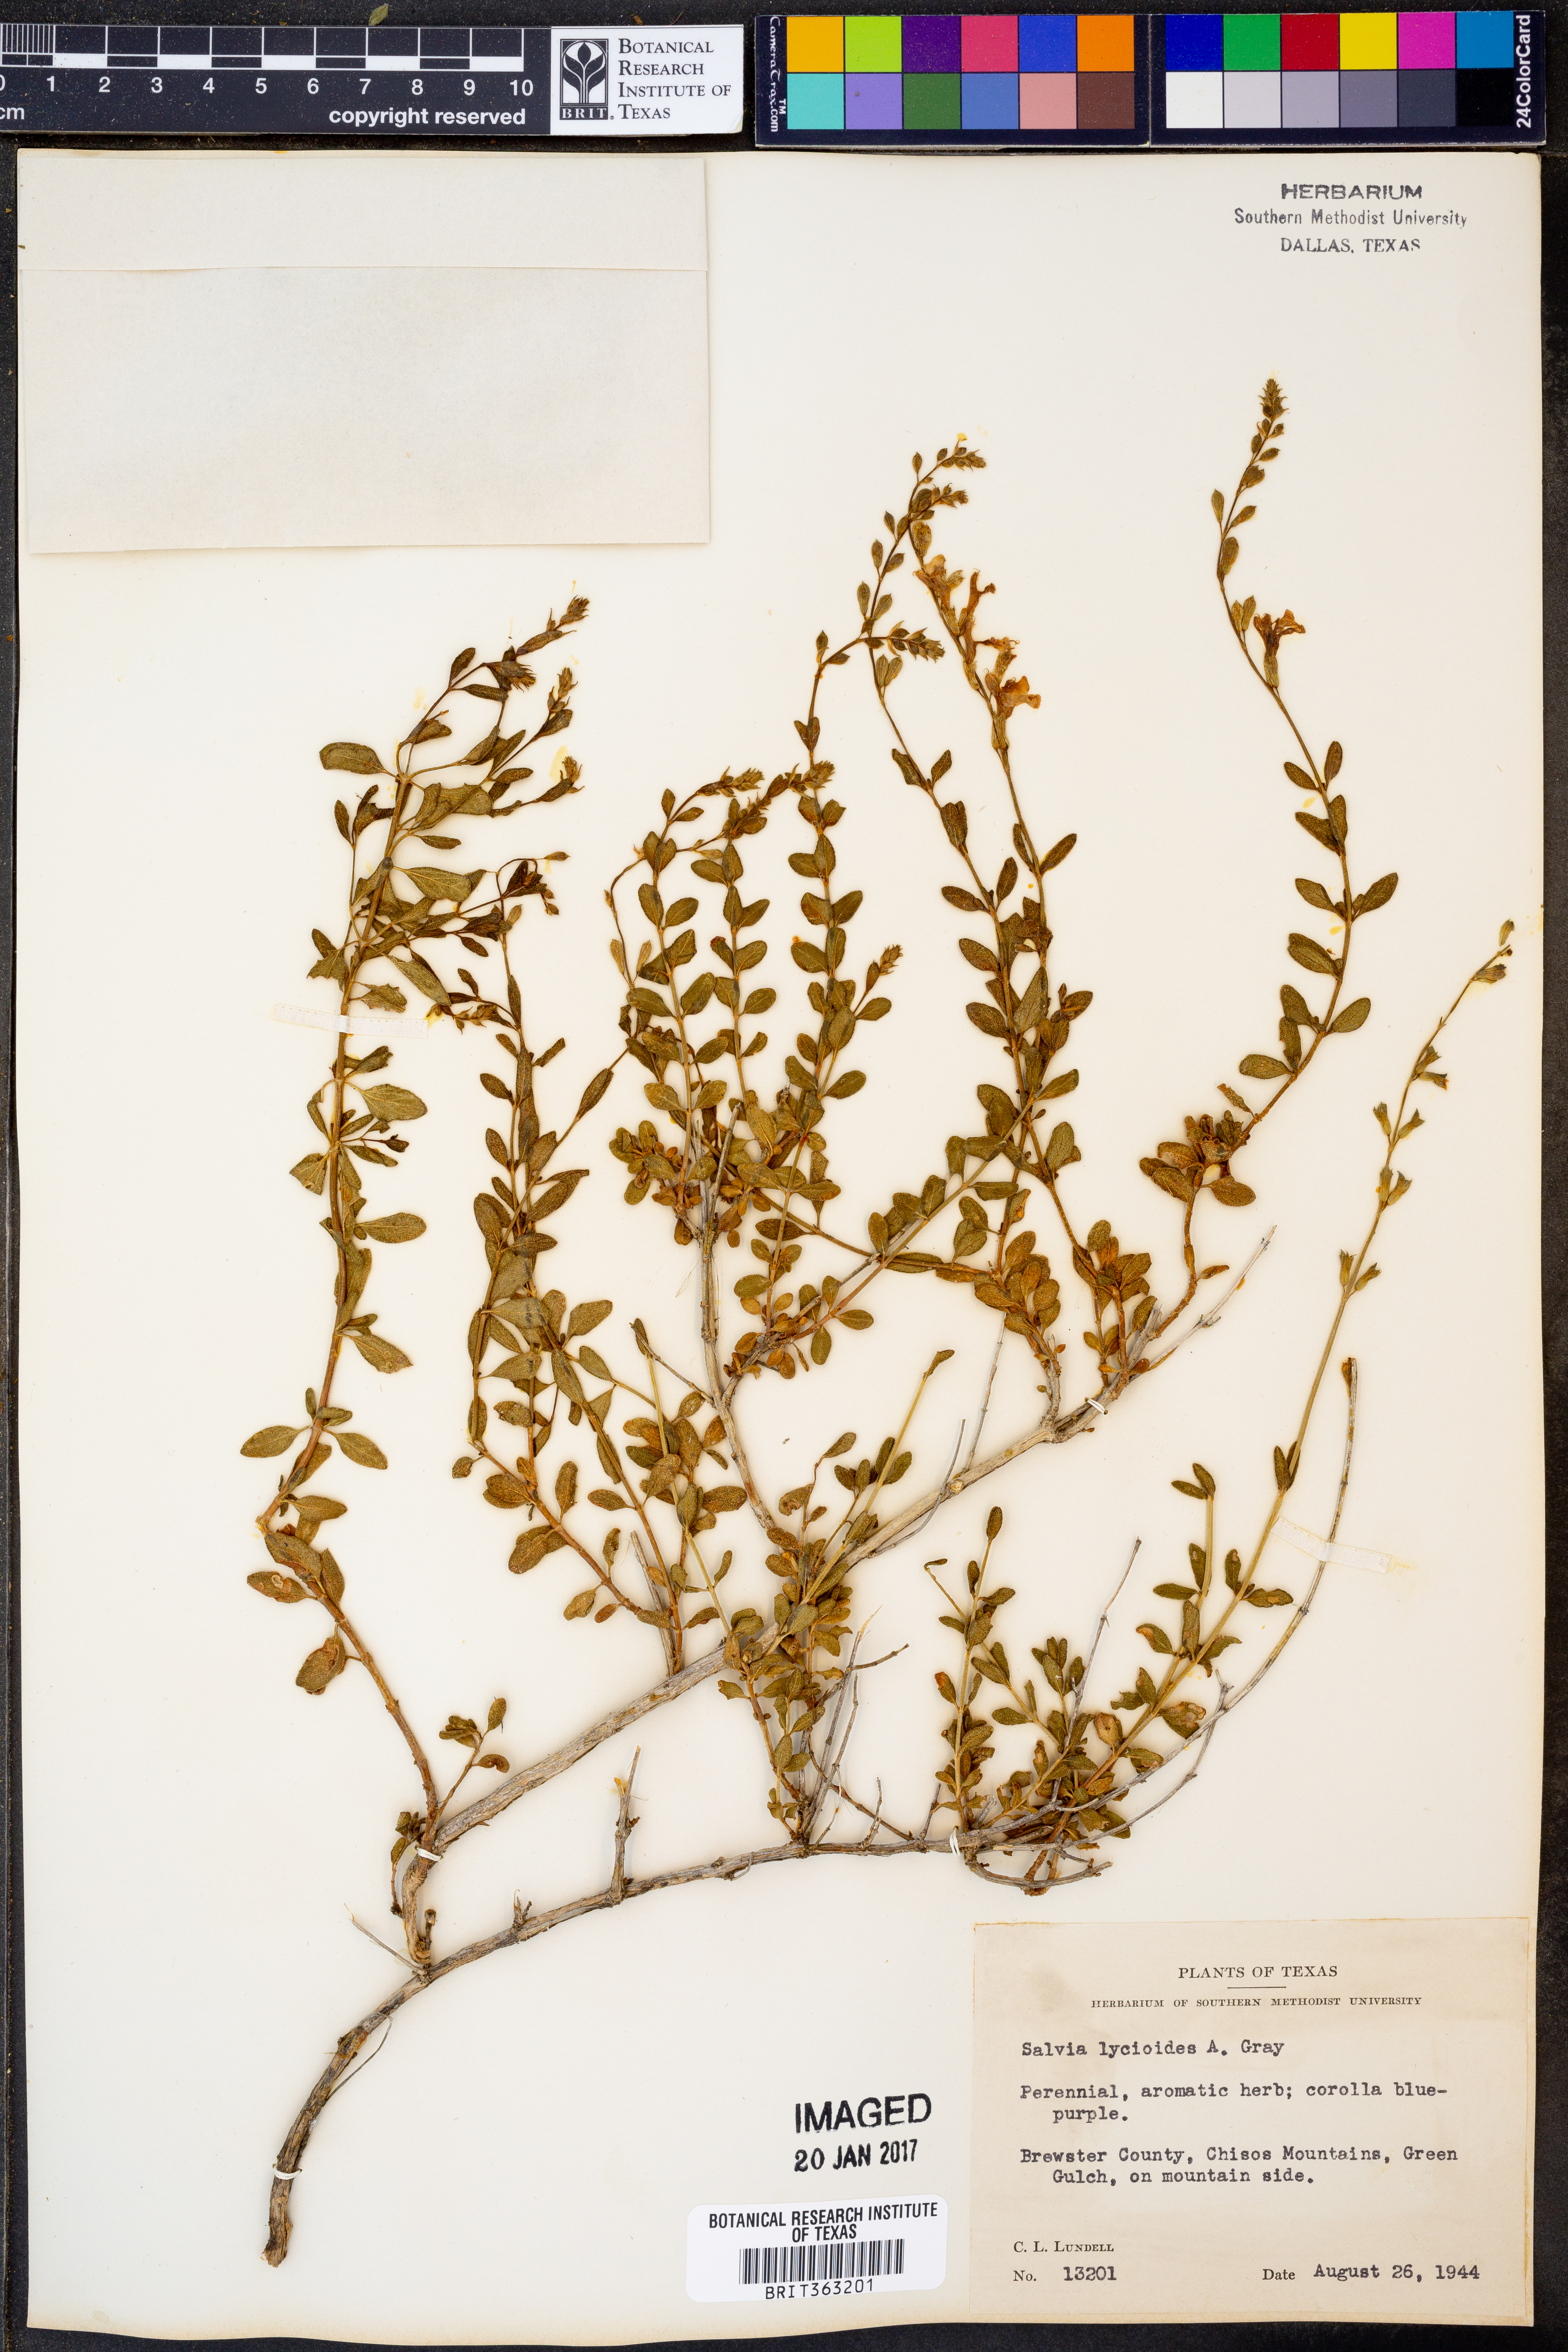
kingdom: Plantae
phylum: Tracheophyta
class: Magnoliopsida
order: Lamiales
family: Lamiaceae
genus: Salvia
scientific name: Salvia lycioides
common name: Canyon sage
